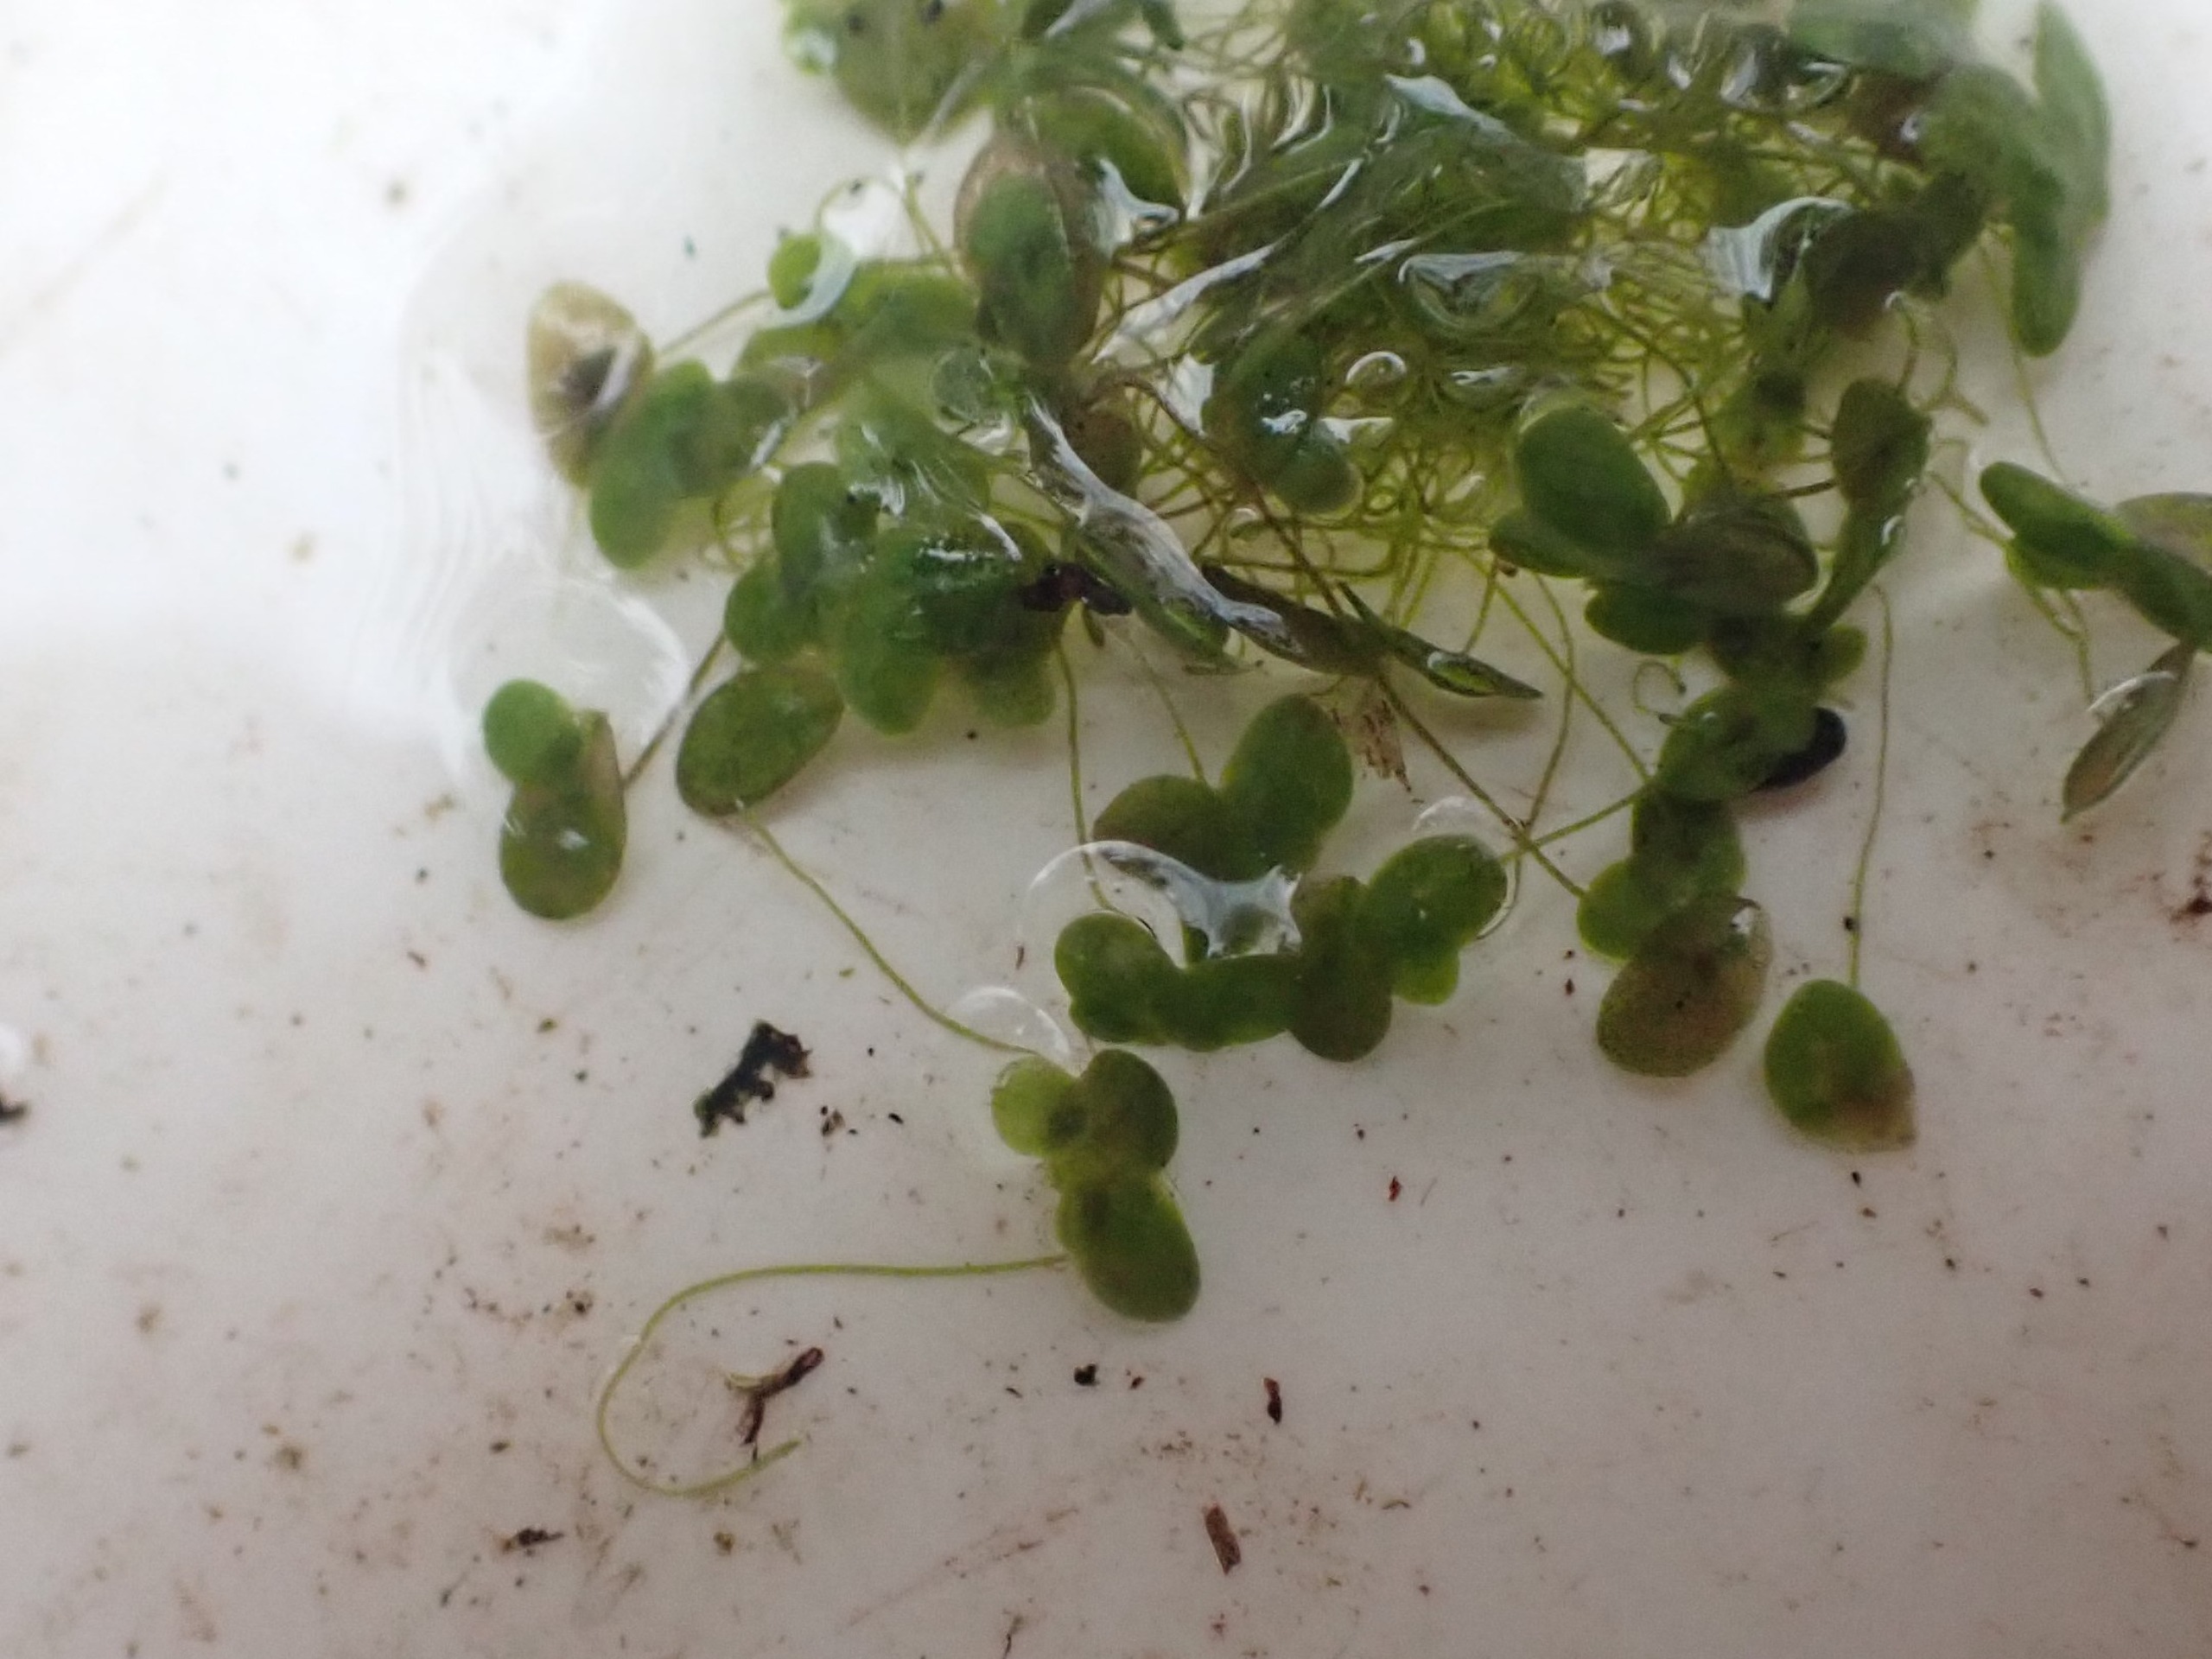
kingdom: Plantae
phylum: Tracheophyta
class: Liliopsida
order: Alismatales
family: Araceae
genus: Lemna
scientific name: Lemna minor
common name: Liden andemad
